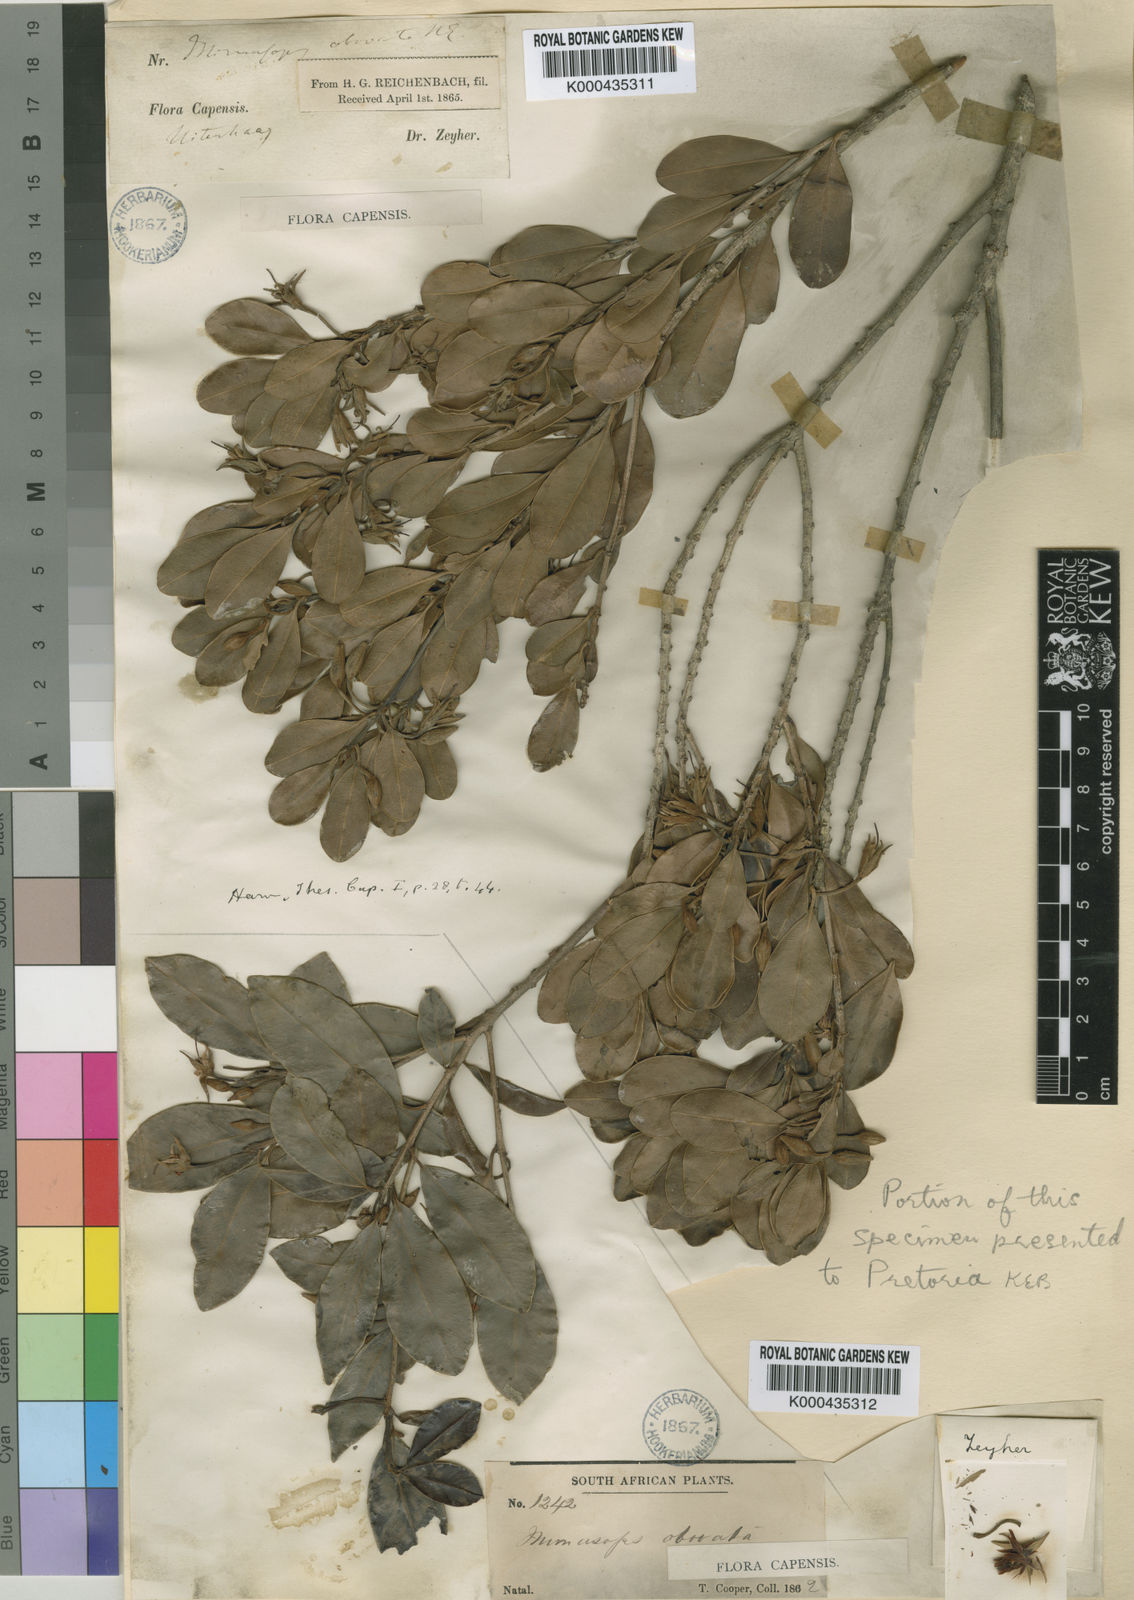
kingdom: Plantae
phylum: Tracheophyta
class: Magnoliopsida
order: Ericales
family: Sapotaceae
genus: Mimusops
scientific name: Mimusops obovata
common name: Red milkwood
